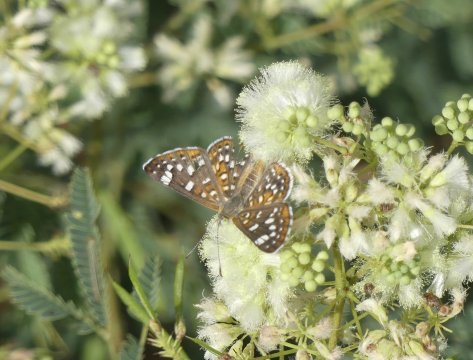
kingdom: Animalia
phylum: Arthropoda
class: Insecta
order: Lepidoptera
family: Riodinidae
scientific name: Riodinidae
